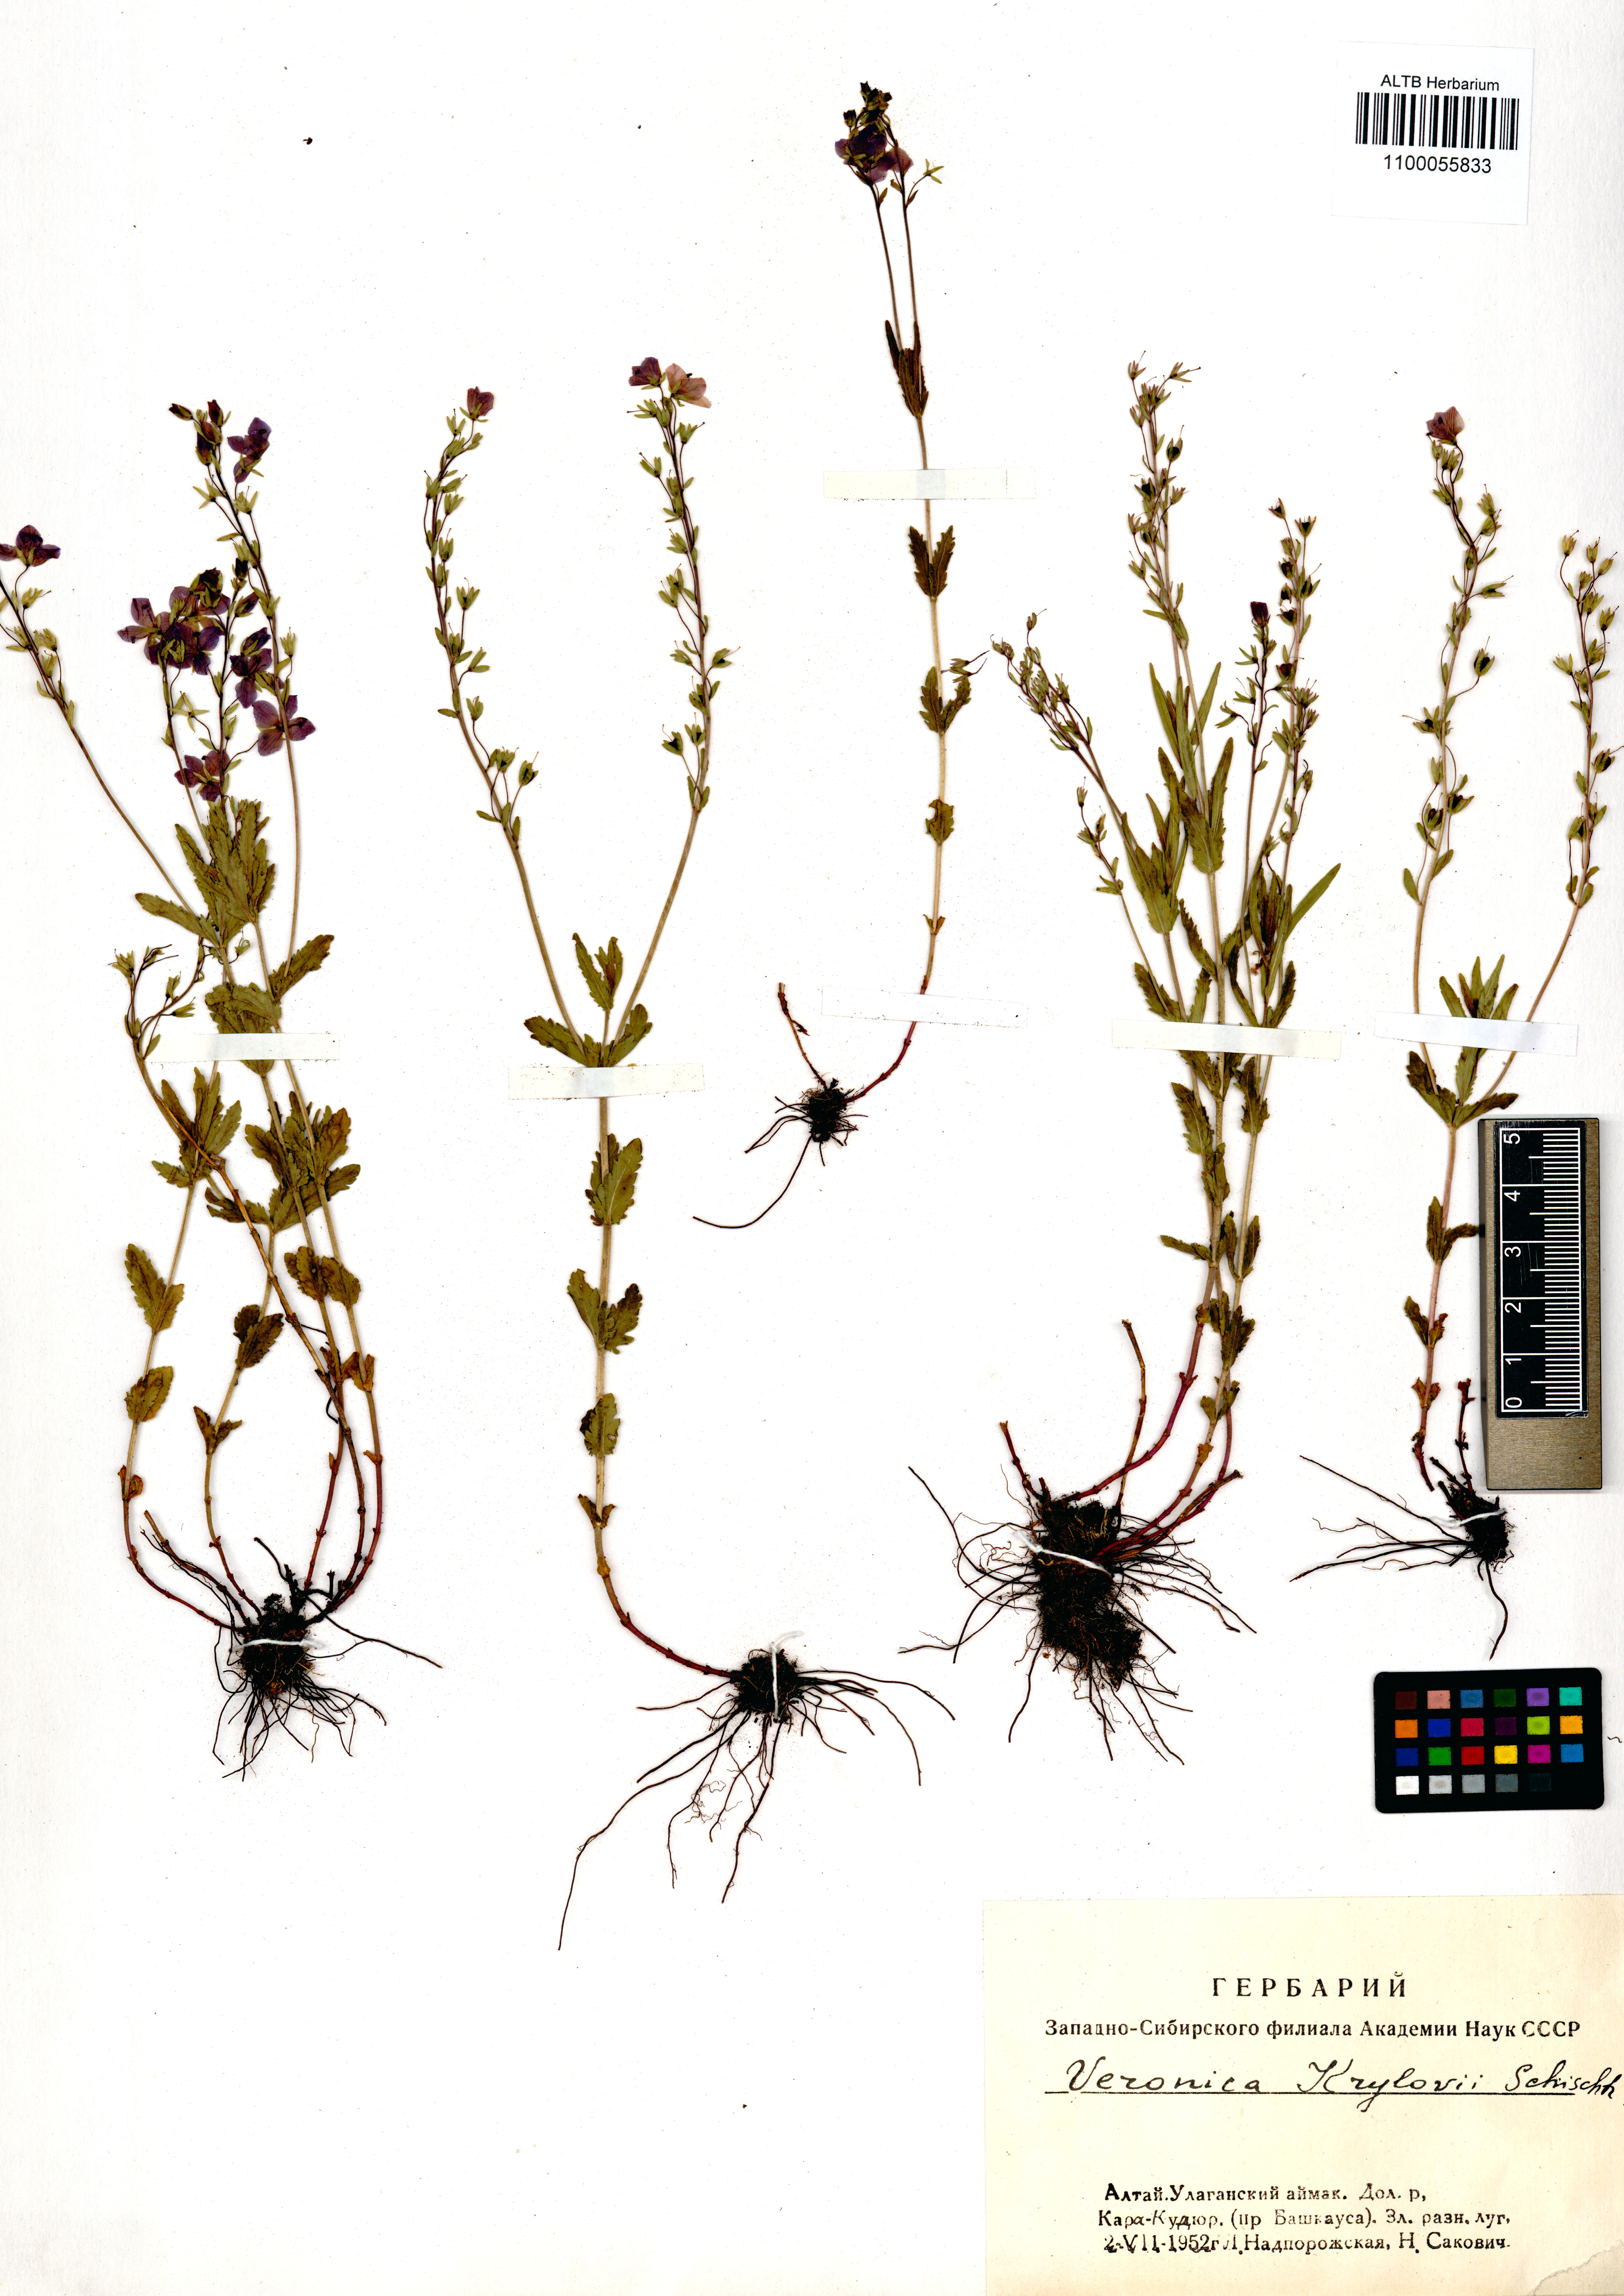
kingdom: Plantae
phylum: Tracheophyta
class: Magnoliopsida
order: Lamiales
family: Plantaginaceae
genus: Veronica
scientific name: Veronica krylovii
